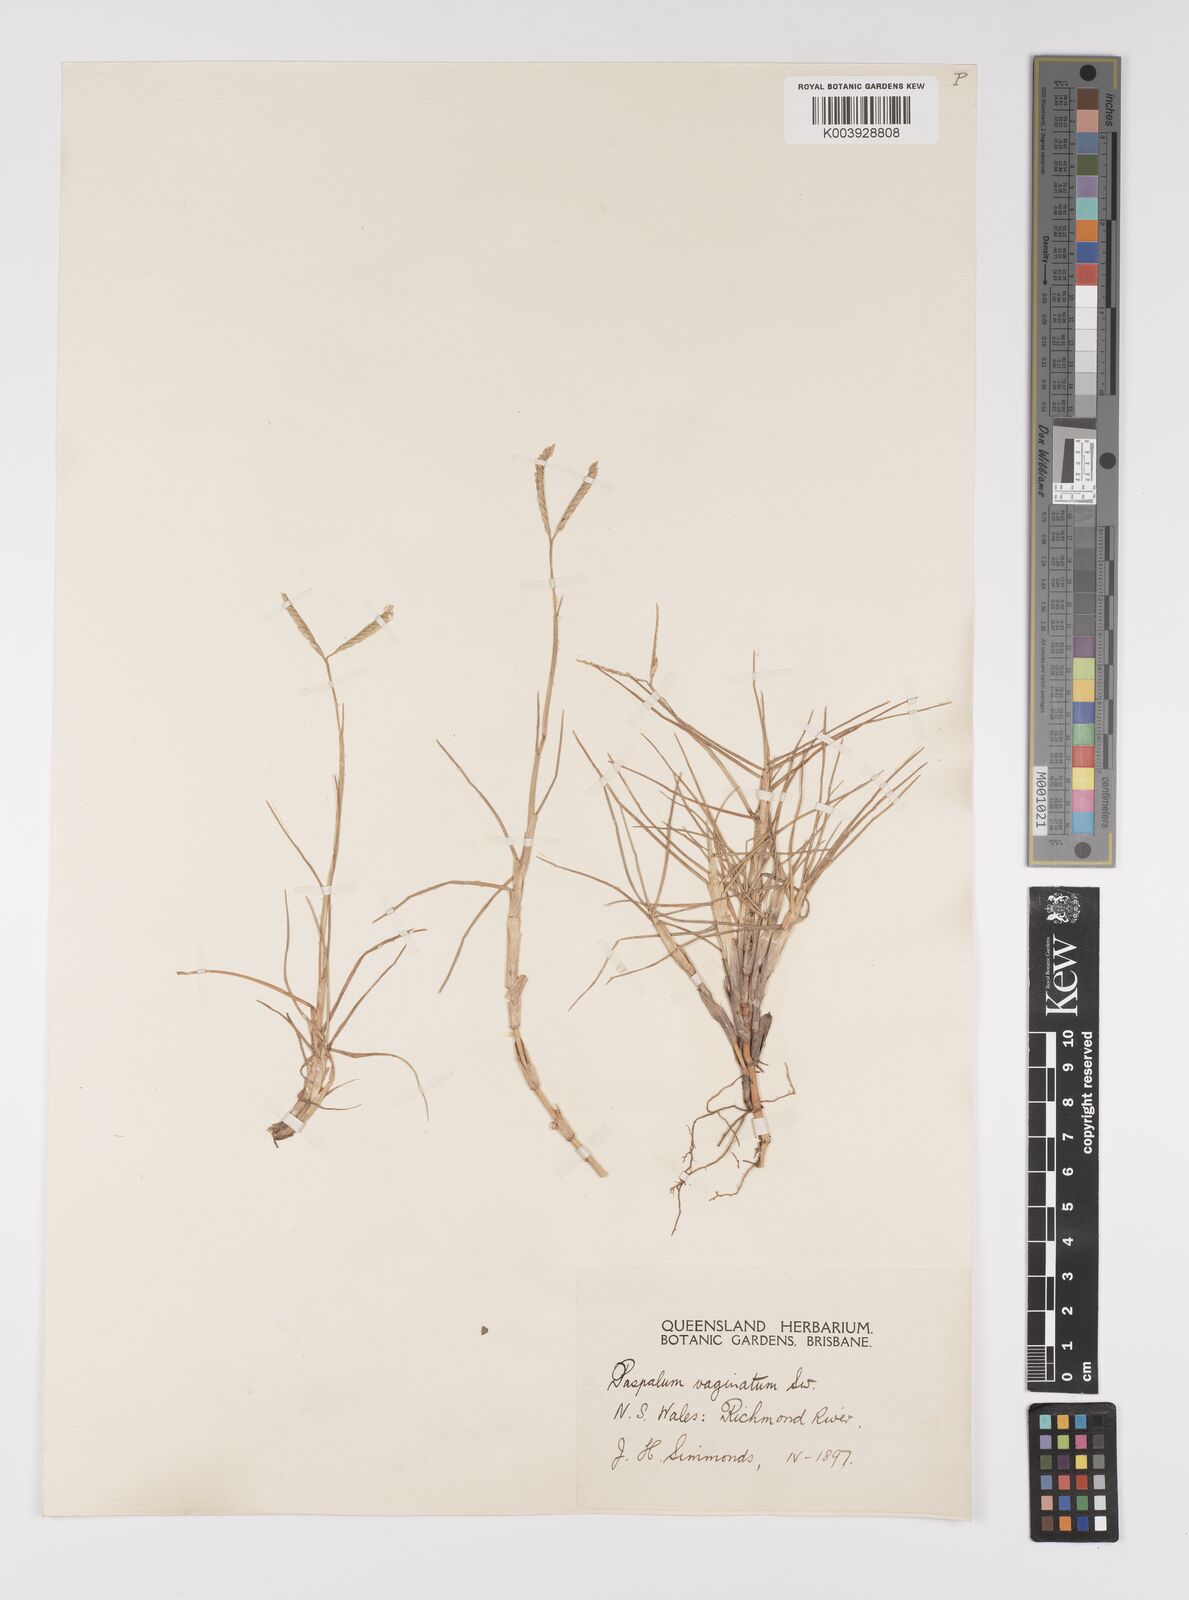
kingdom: Plantae
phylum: Tracheophyta
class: Liliopsida
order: Poales
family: Poaceae
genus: Paspalum
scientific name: Paspalum vaginatum
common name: Seashore paspalum
